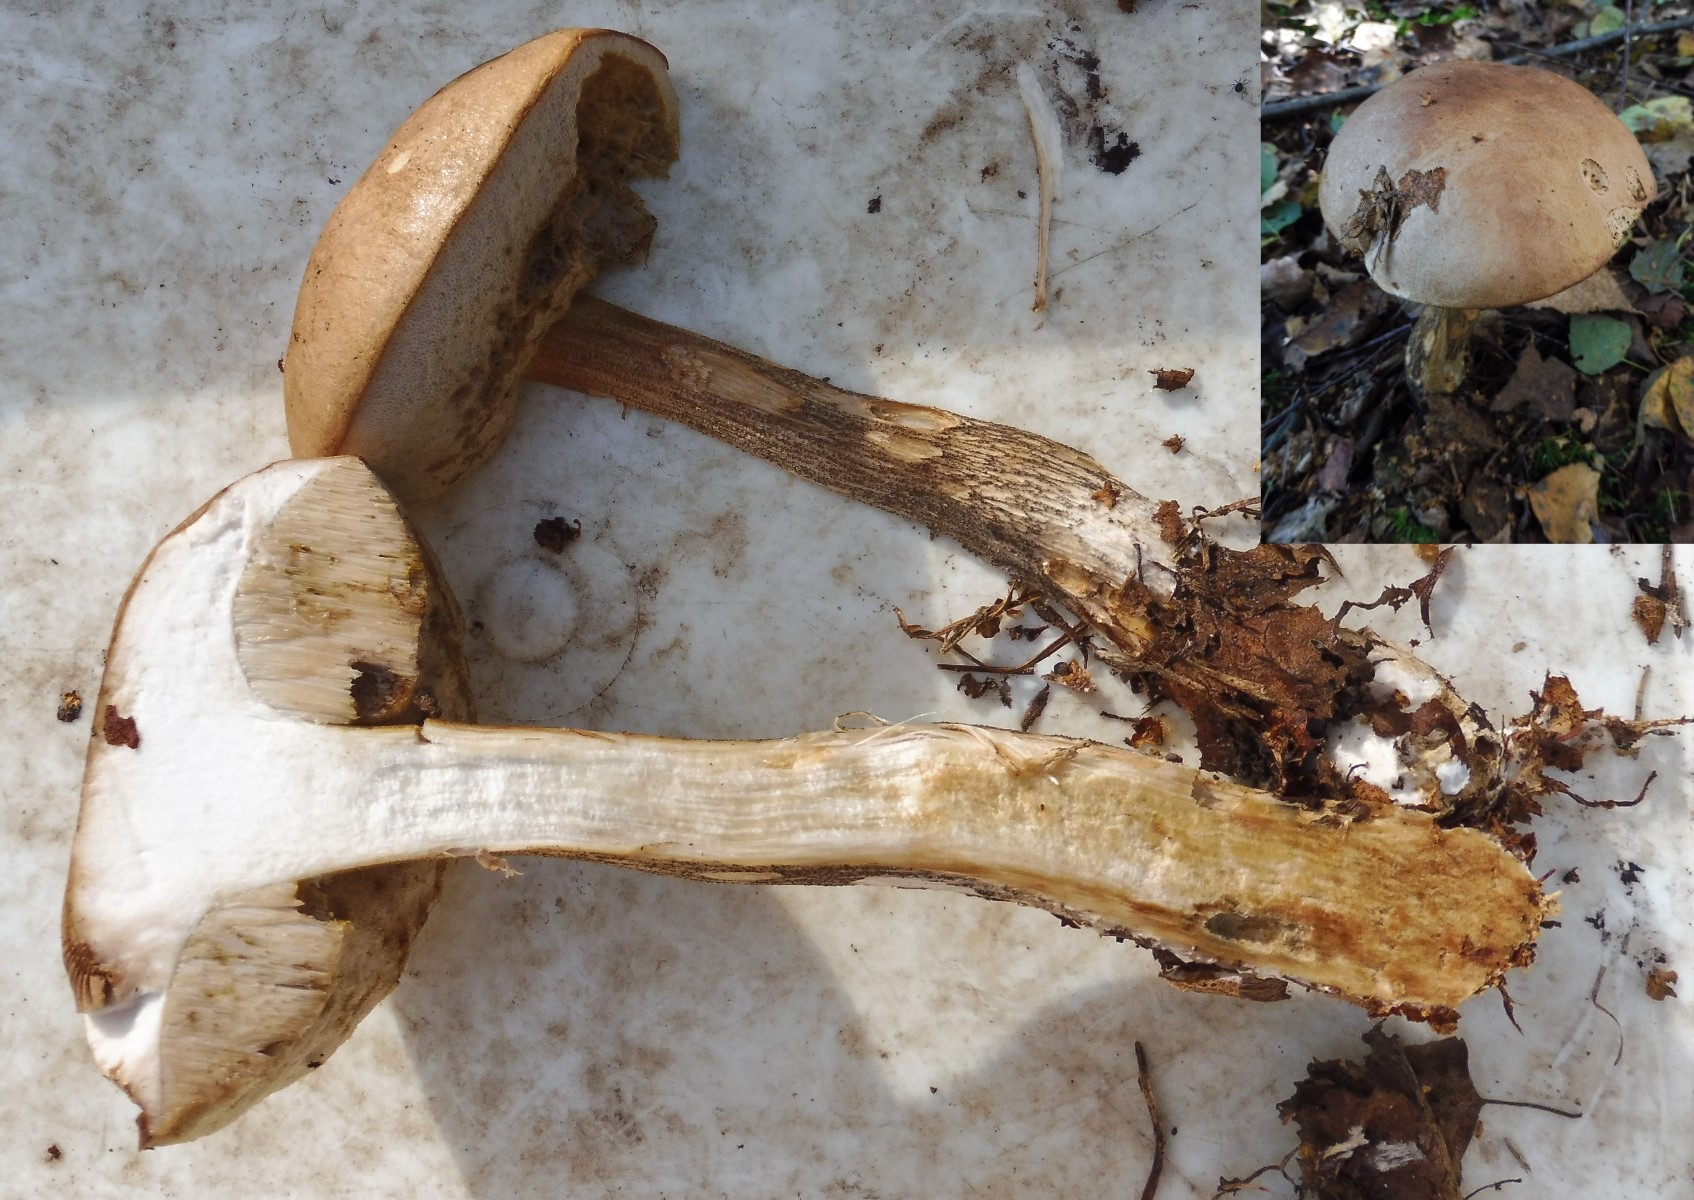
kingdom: Fungi
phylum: Basidiomycota
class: Agaricomycetes
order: Boletales
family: Boletaceae
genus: Leccinum
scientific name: Leccinum scabrum
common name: brun skælrørhat
